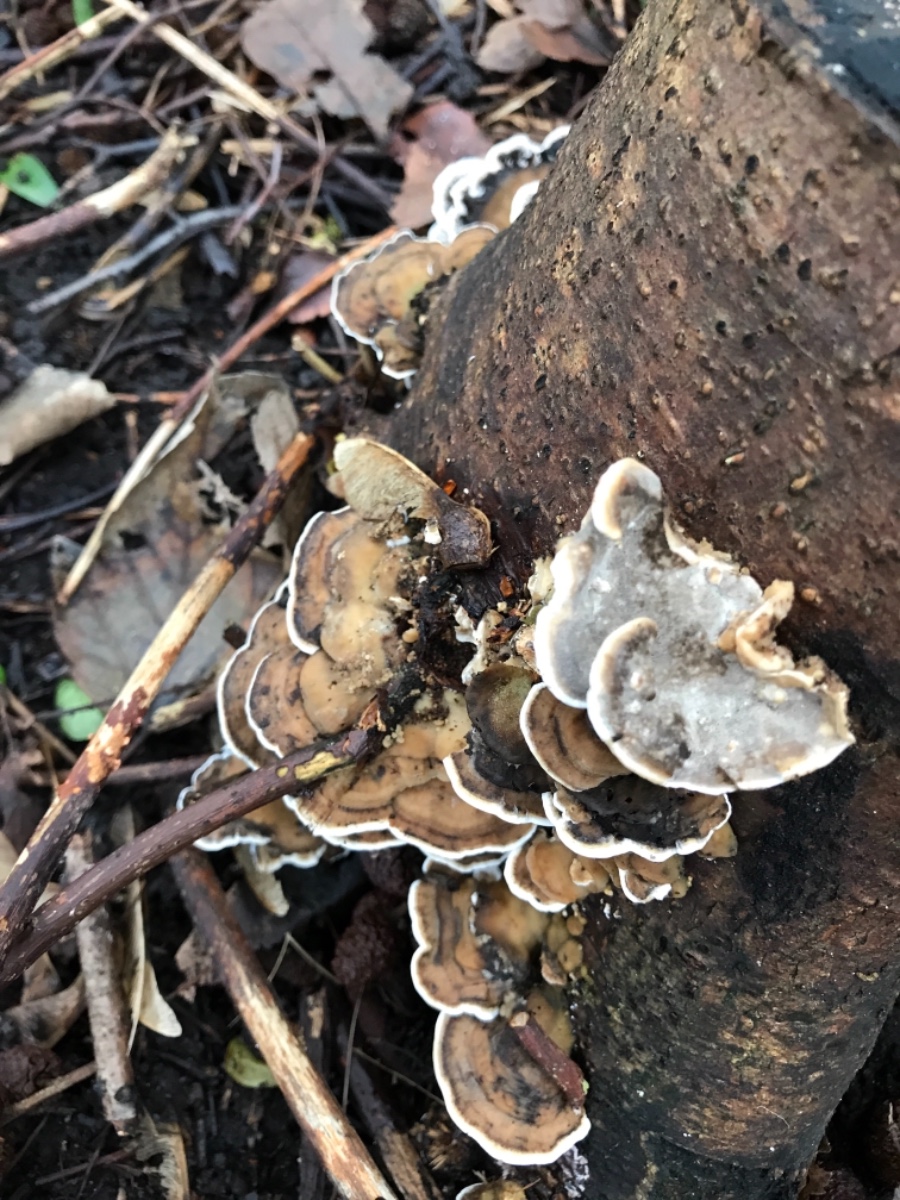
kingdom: Fungi
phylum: Basidiomycota
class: Agaricomycetes
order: Polyporales
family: Phanerochaetaceae
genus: Bjerkandera
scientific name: Bjerkandera adusta
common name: sveden sodporesvamp
